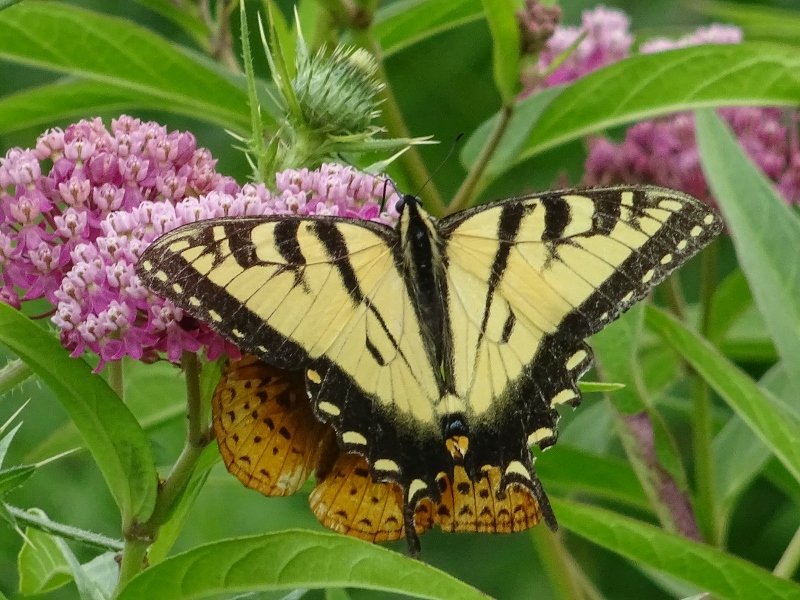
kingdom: Animalia
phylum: Arthropoda
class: Insecta
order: Lepidoptera
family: Papilionidae
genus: Pterourus
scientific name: Pterourus glaucus
